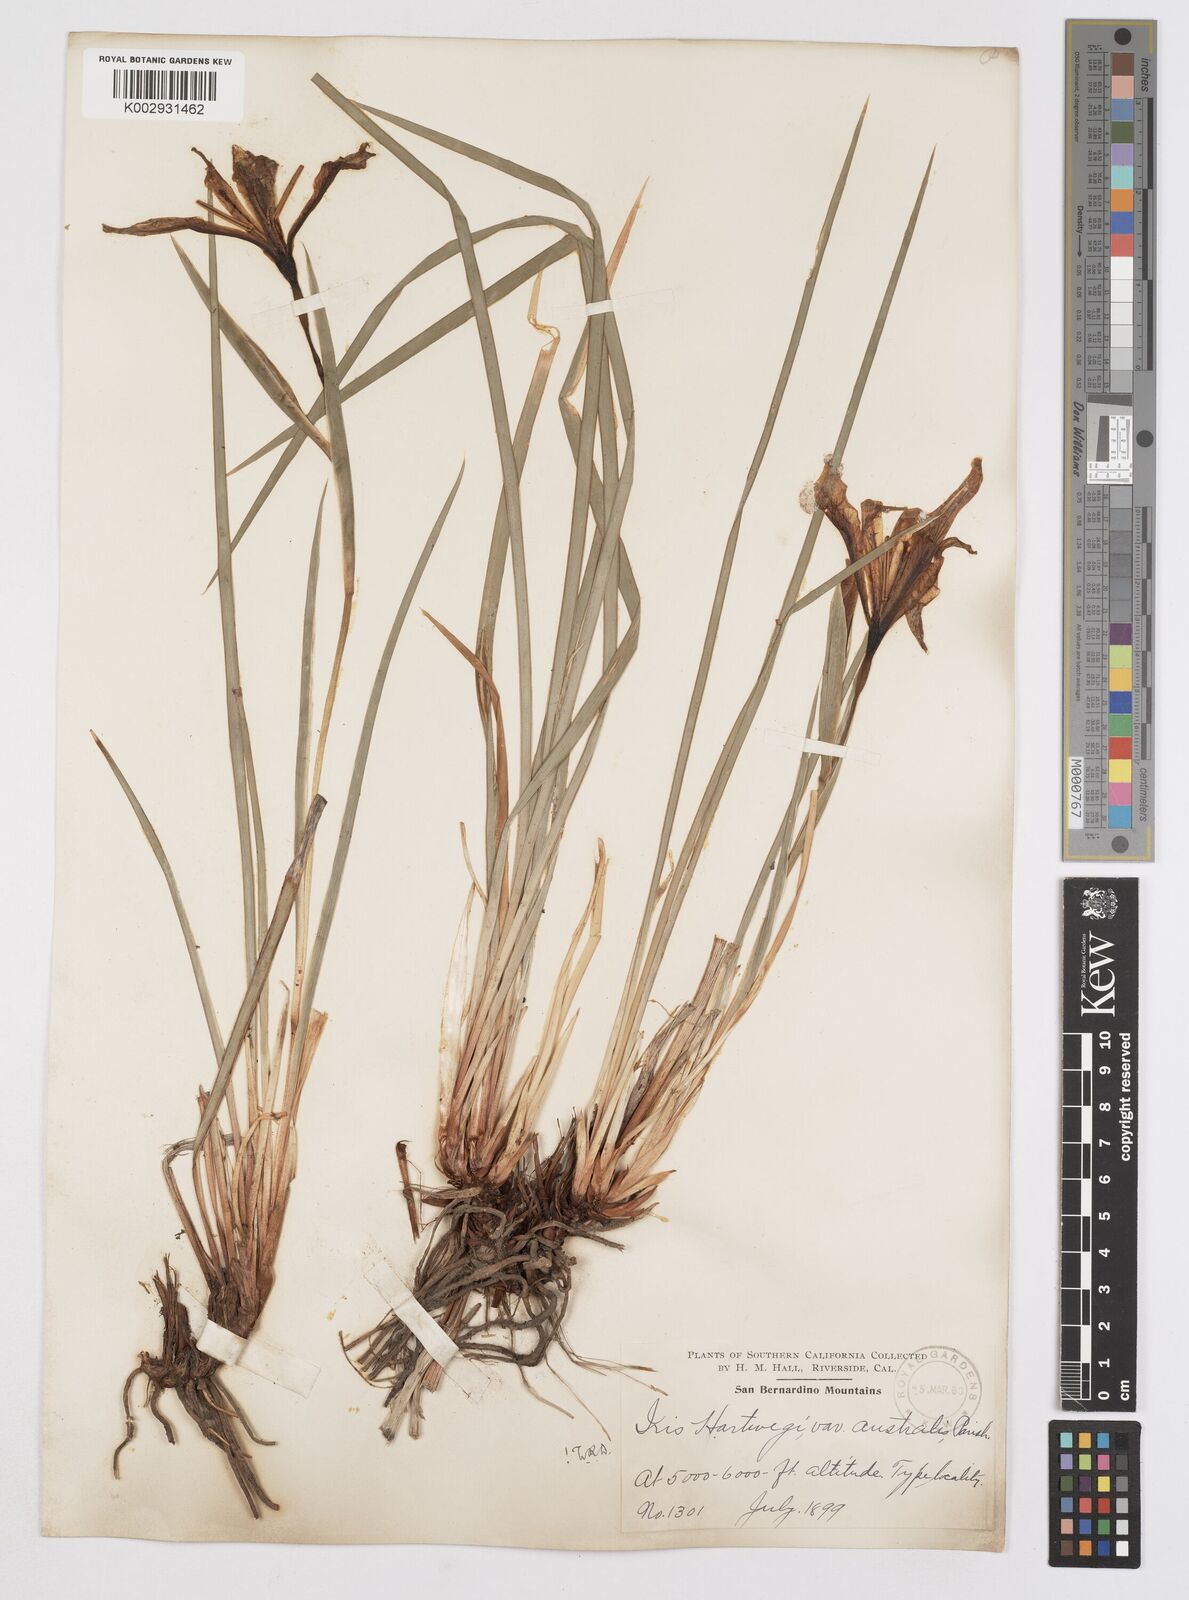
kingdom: Plantae
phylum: Tracheophyta
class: Liliopsida
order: Asparagales
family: Iridaceae
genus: Iris
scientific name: Iris hartwegii
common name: Sierra iris
